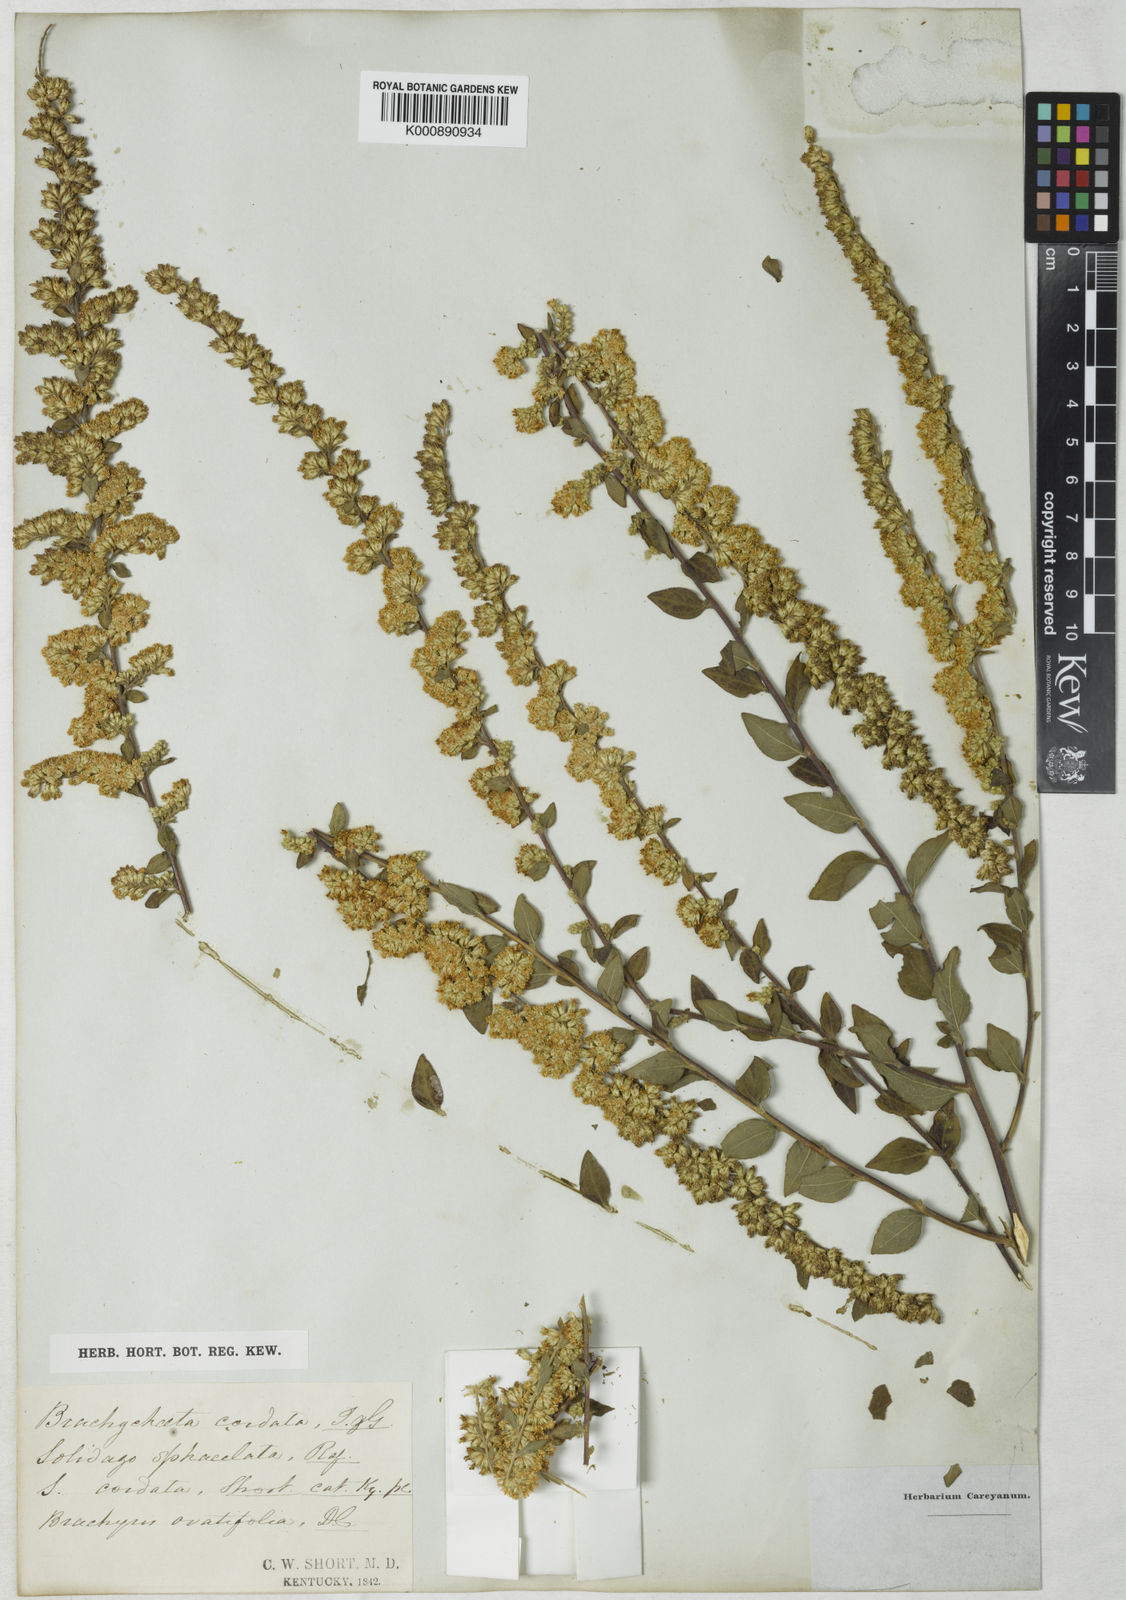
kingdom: Plantae
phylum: Tracheophyta
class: Magnoliopsida
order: Asterales
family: Asteraceae
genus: Solidago
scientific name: Solidago sphacelata
